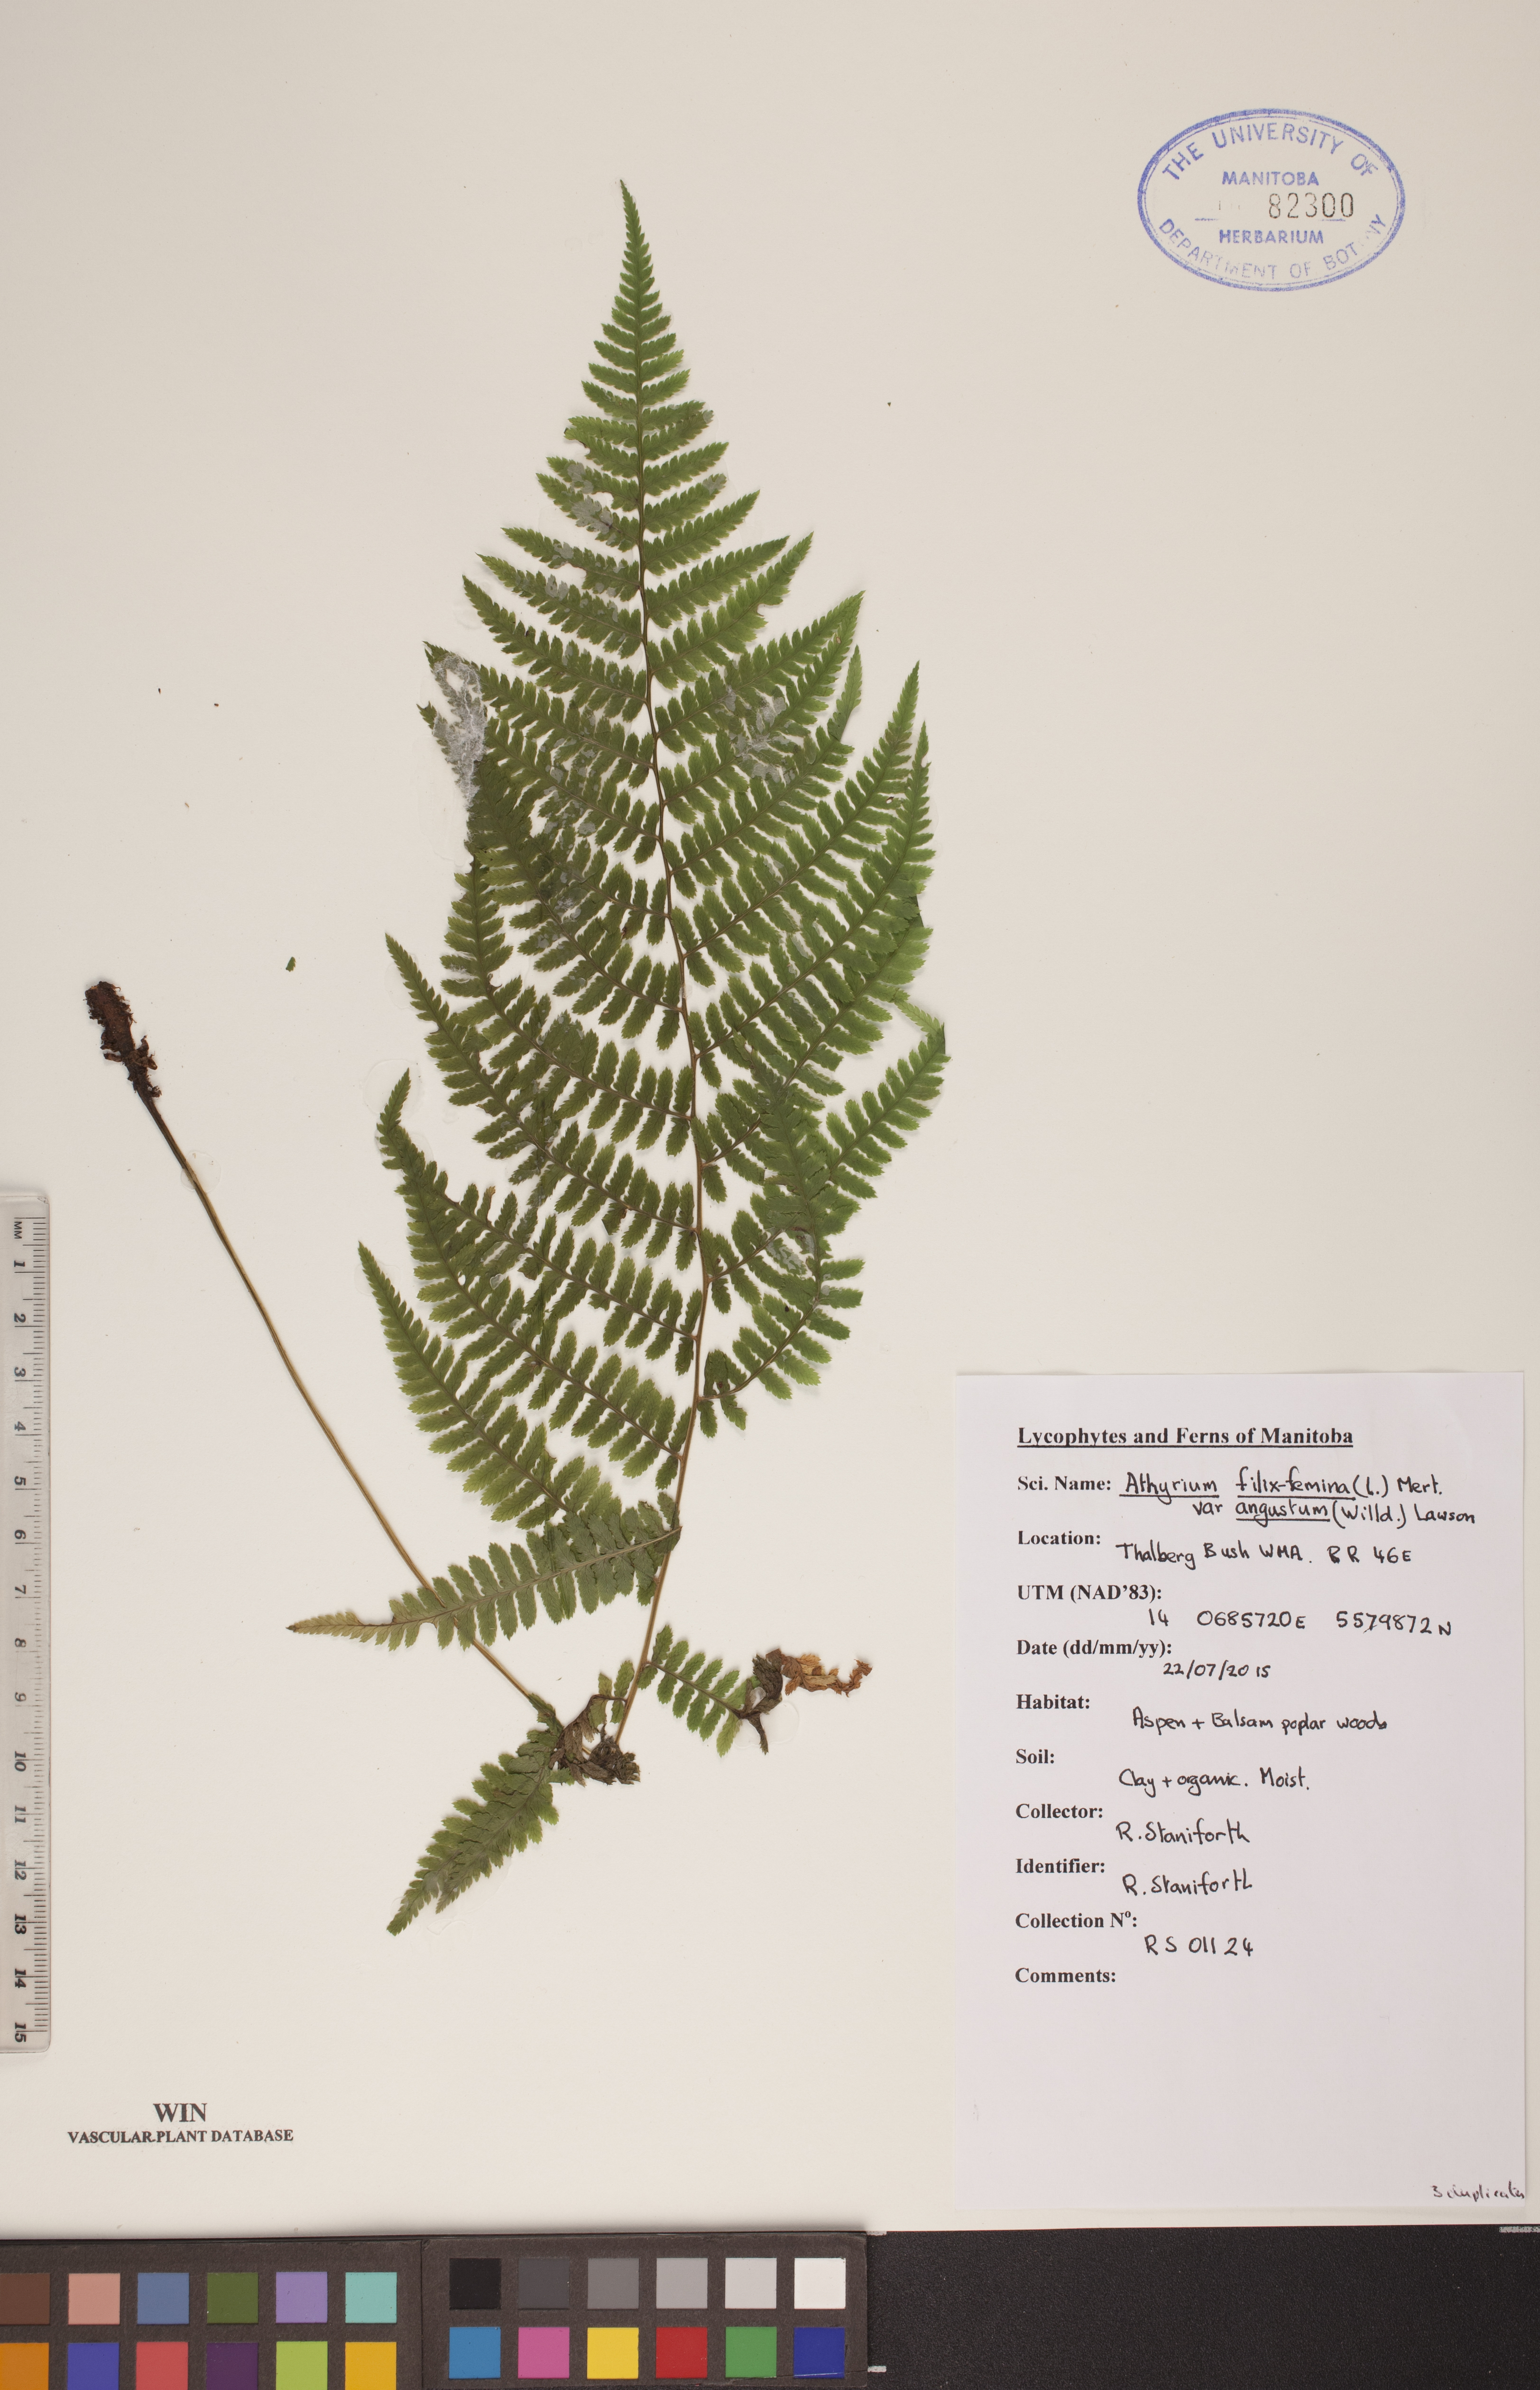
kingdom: Plantae
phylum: Tracheophyta
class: Polypodiopsida
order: Polypodiales
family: Athyriaceae
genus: Athyrium
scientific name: Athyrium angustum
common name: Northern lady fern
